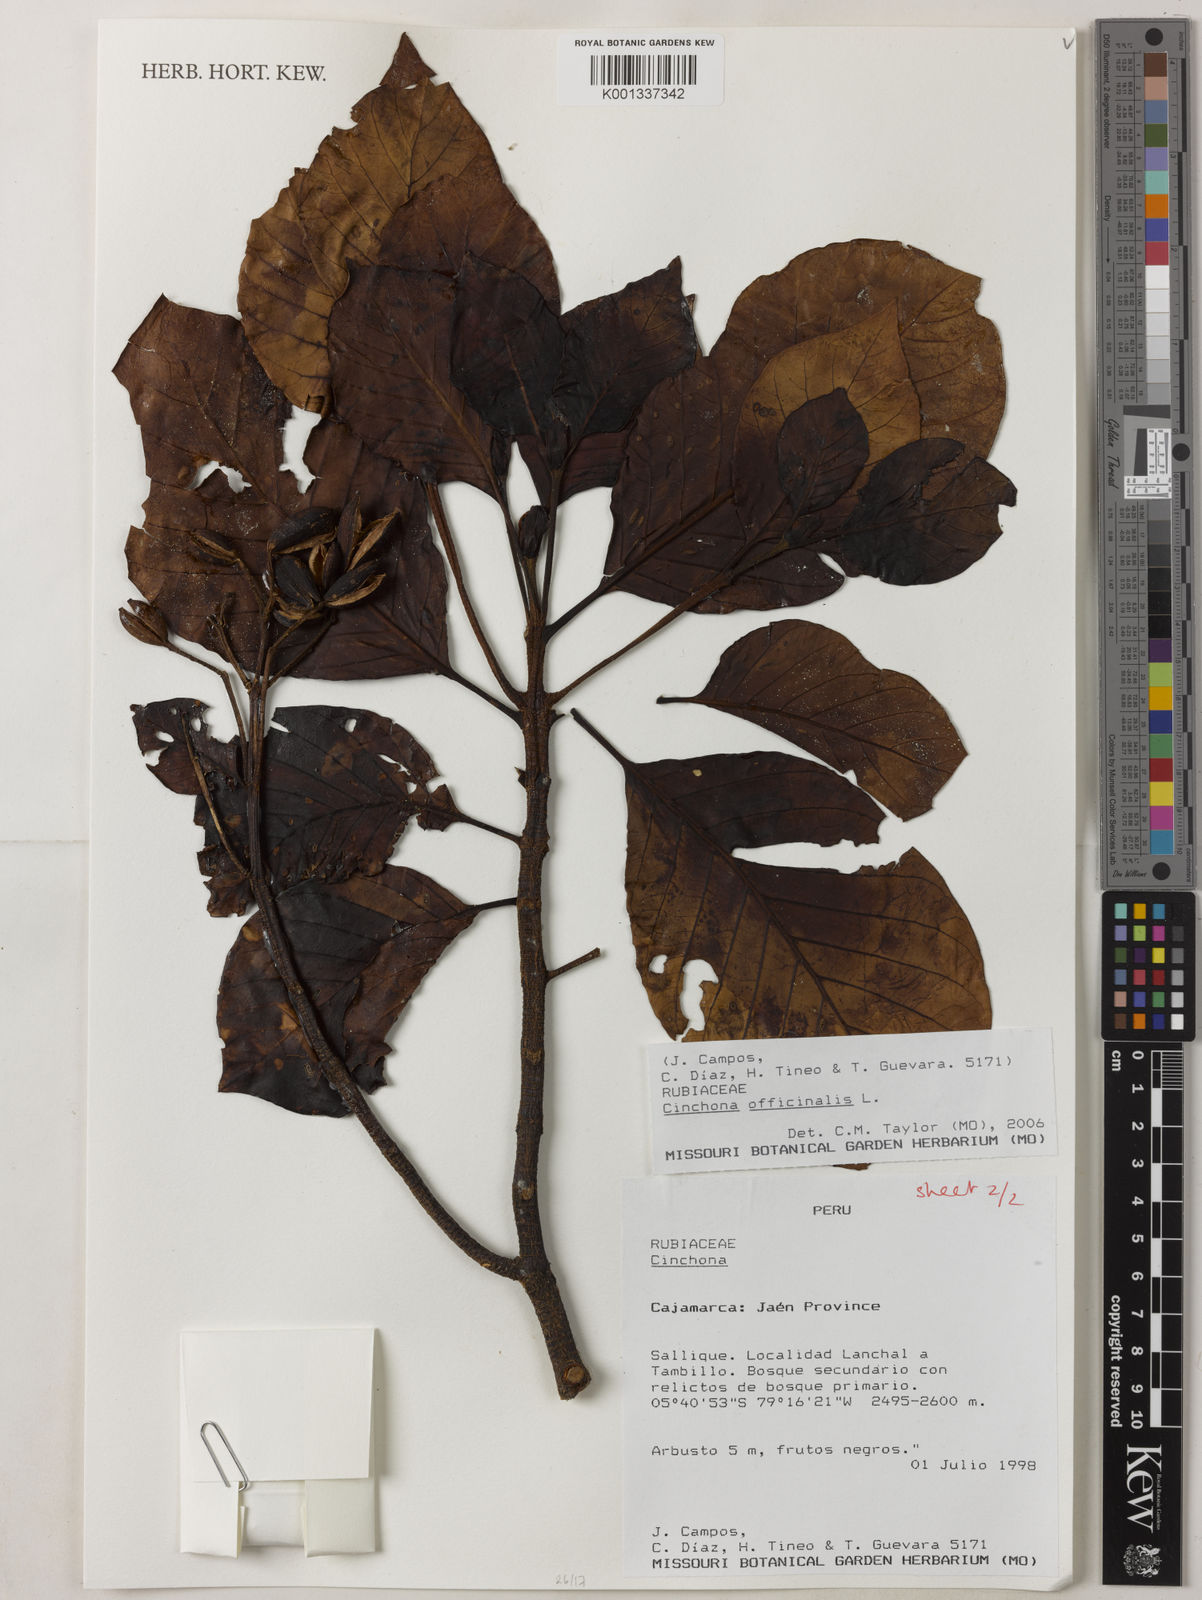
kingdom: Plantae
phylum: Tracheophyta
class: Magnoliopsida
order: Gentianales
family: Rubiaceae
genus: Cinchona
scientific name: Cinchona officinalis
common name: Lojabark
